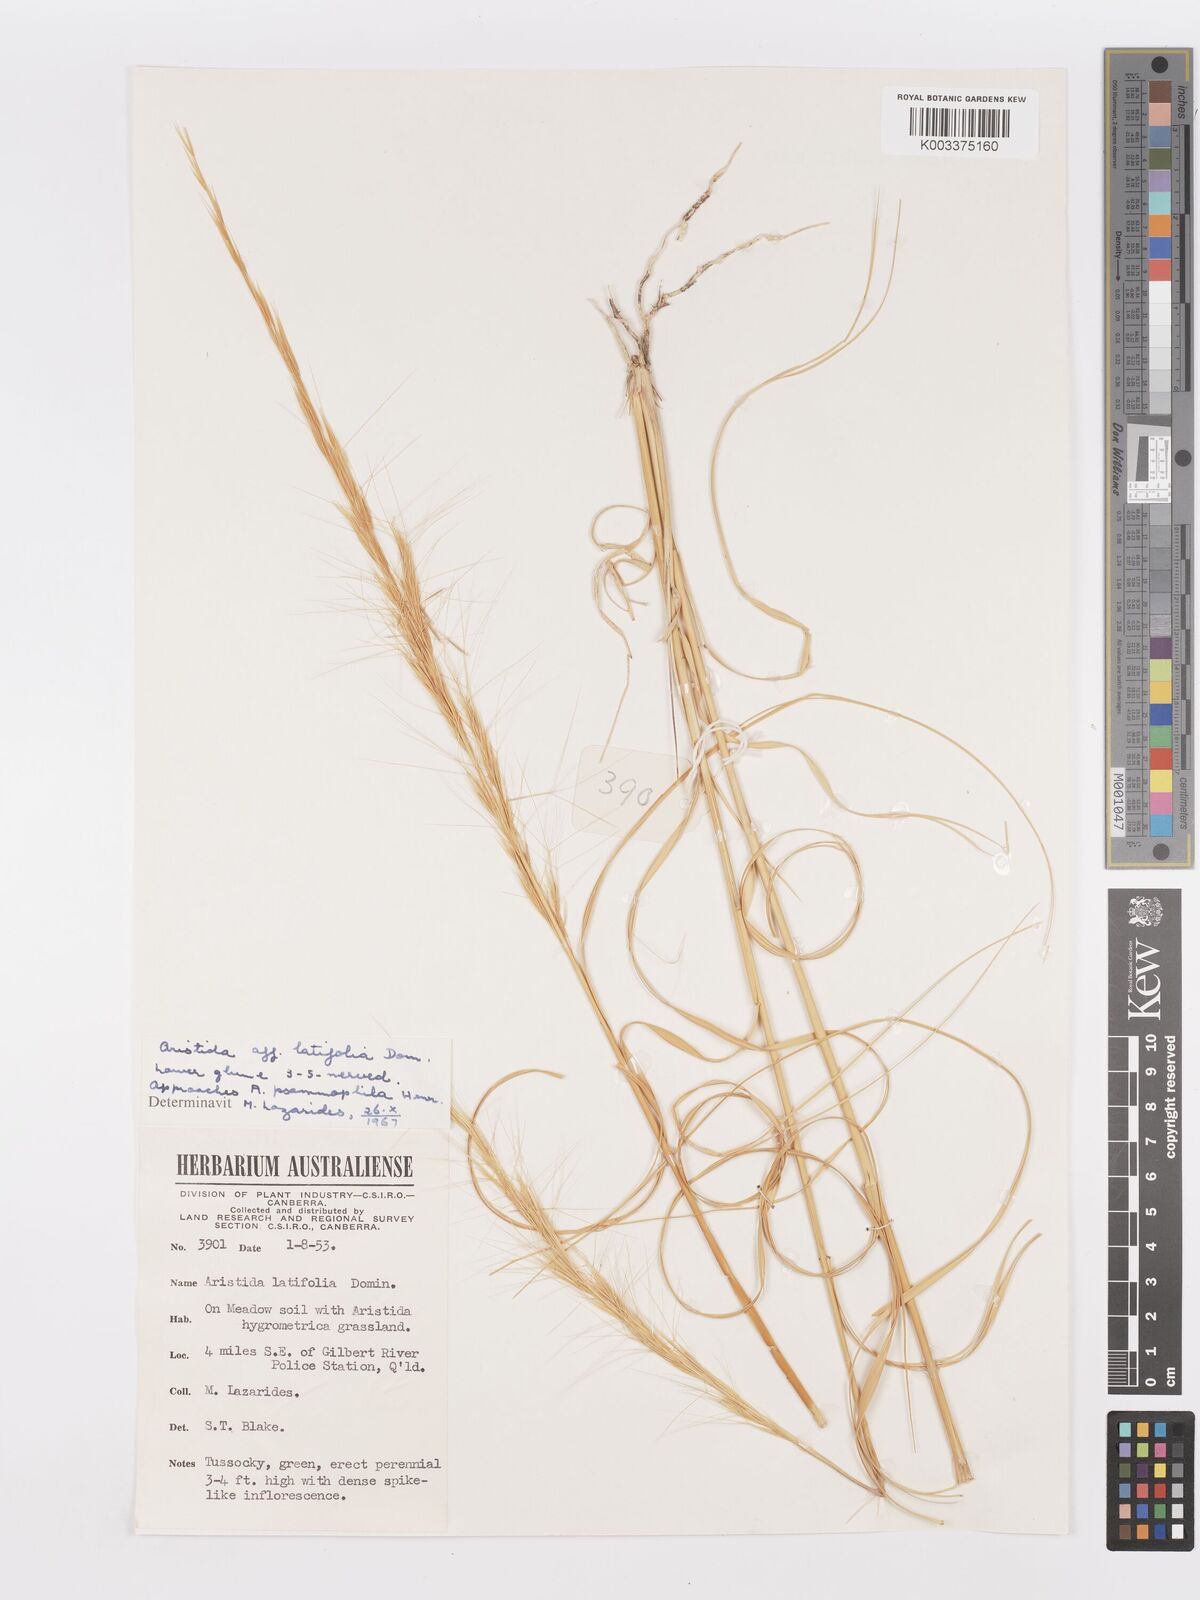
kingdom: Plantae
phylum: Tracheophyta
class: Liliopsida
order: Poales
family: Poaceae
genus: Aristida
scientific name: Aristida latifolia
